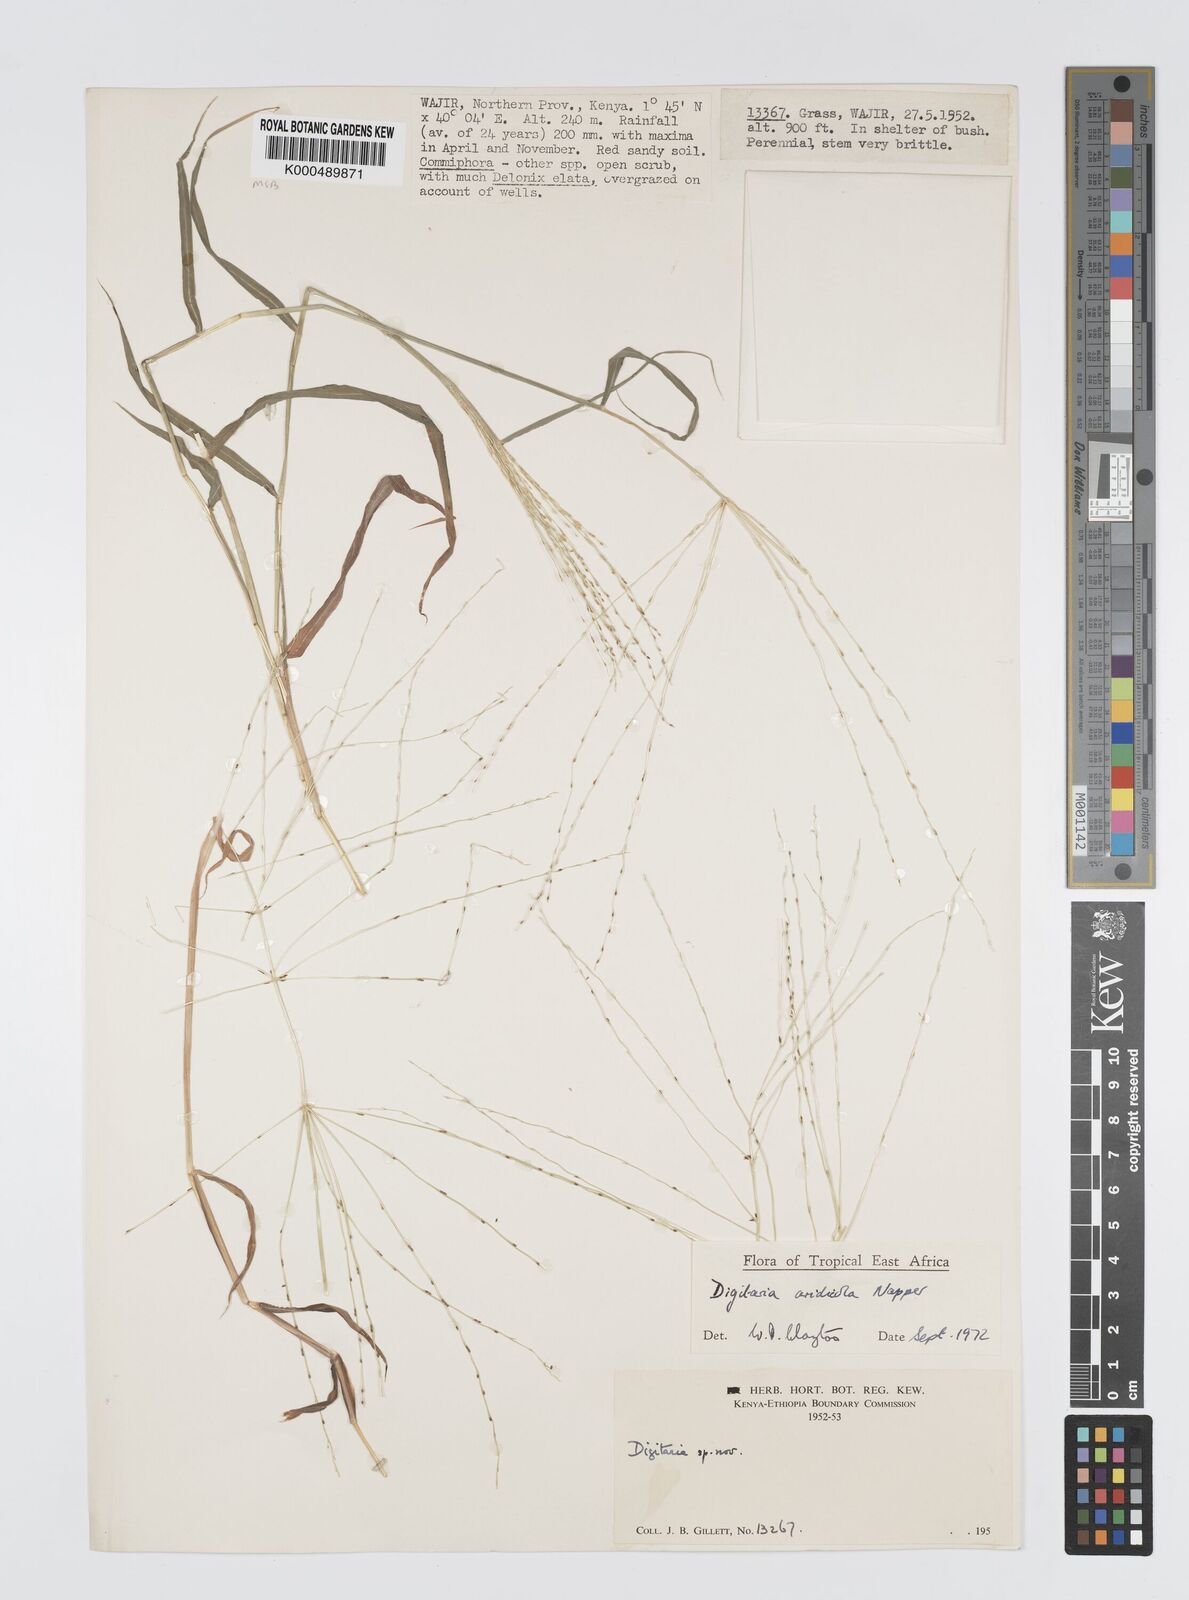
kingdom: Plantae
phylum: Tracheophyta
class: Liliopsida
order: Poales
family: Poaceae
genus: Digitaria
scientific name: Digitaria aridicola
